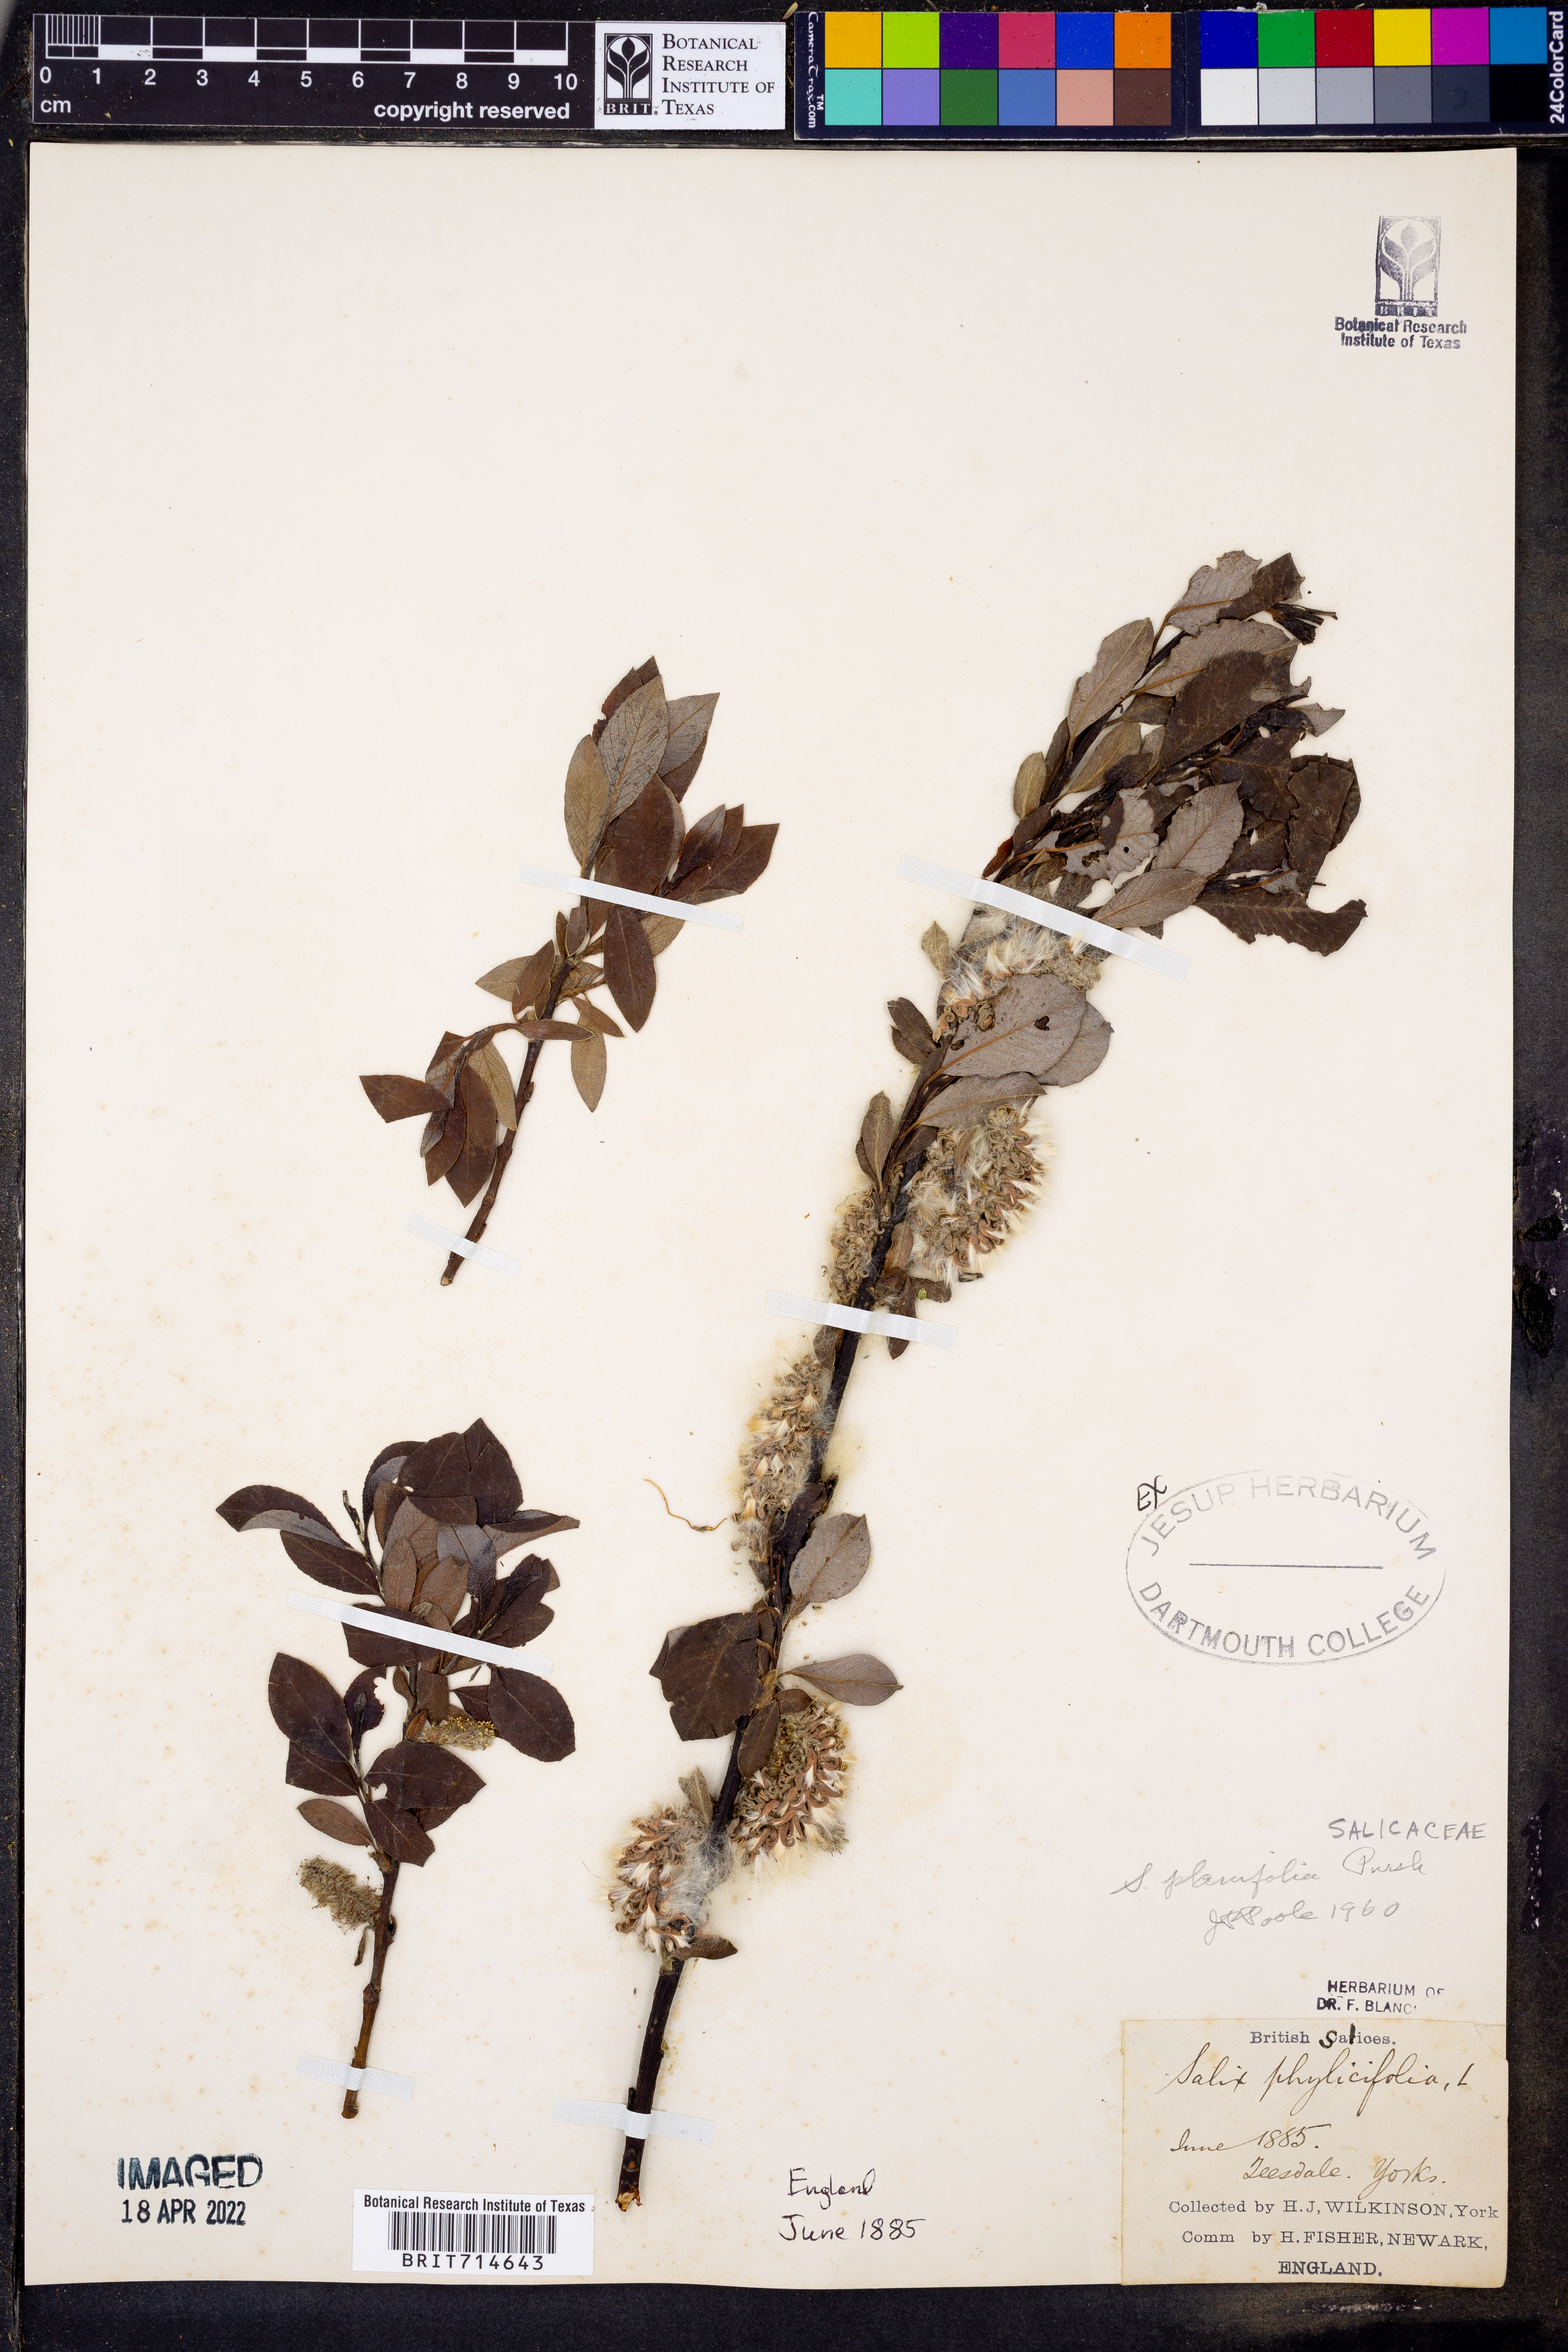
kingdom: Plantae
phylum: Tracheophyta
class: Magnoliopsida
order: Malpighiales
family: Salicaceae
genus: Salix
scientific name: Salix
